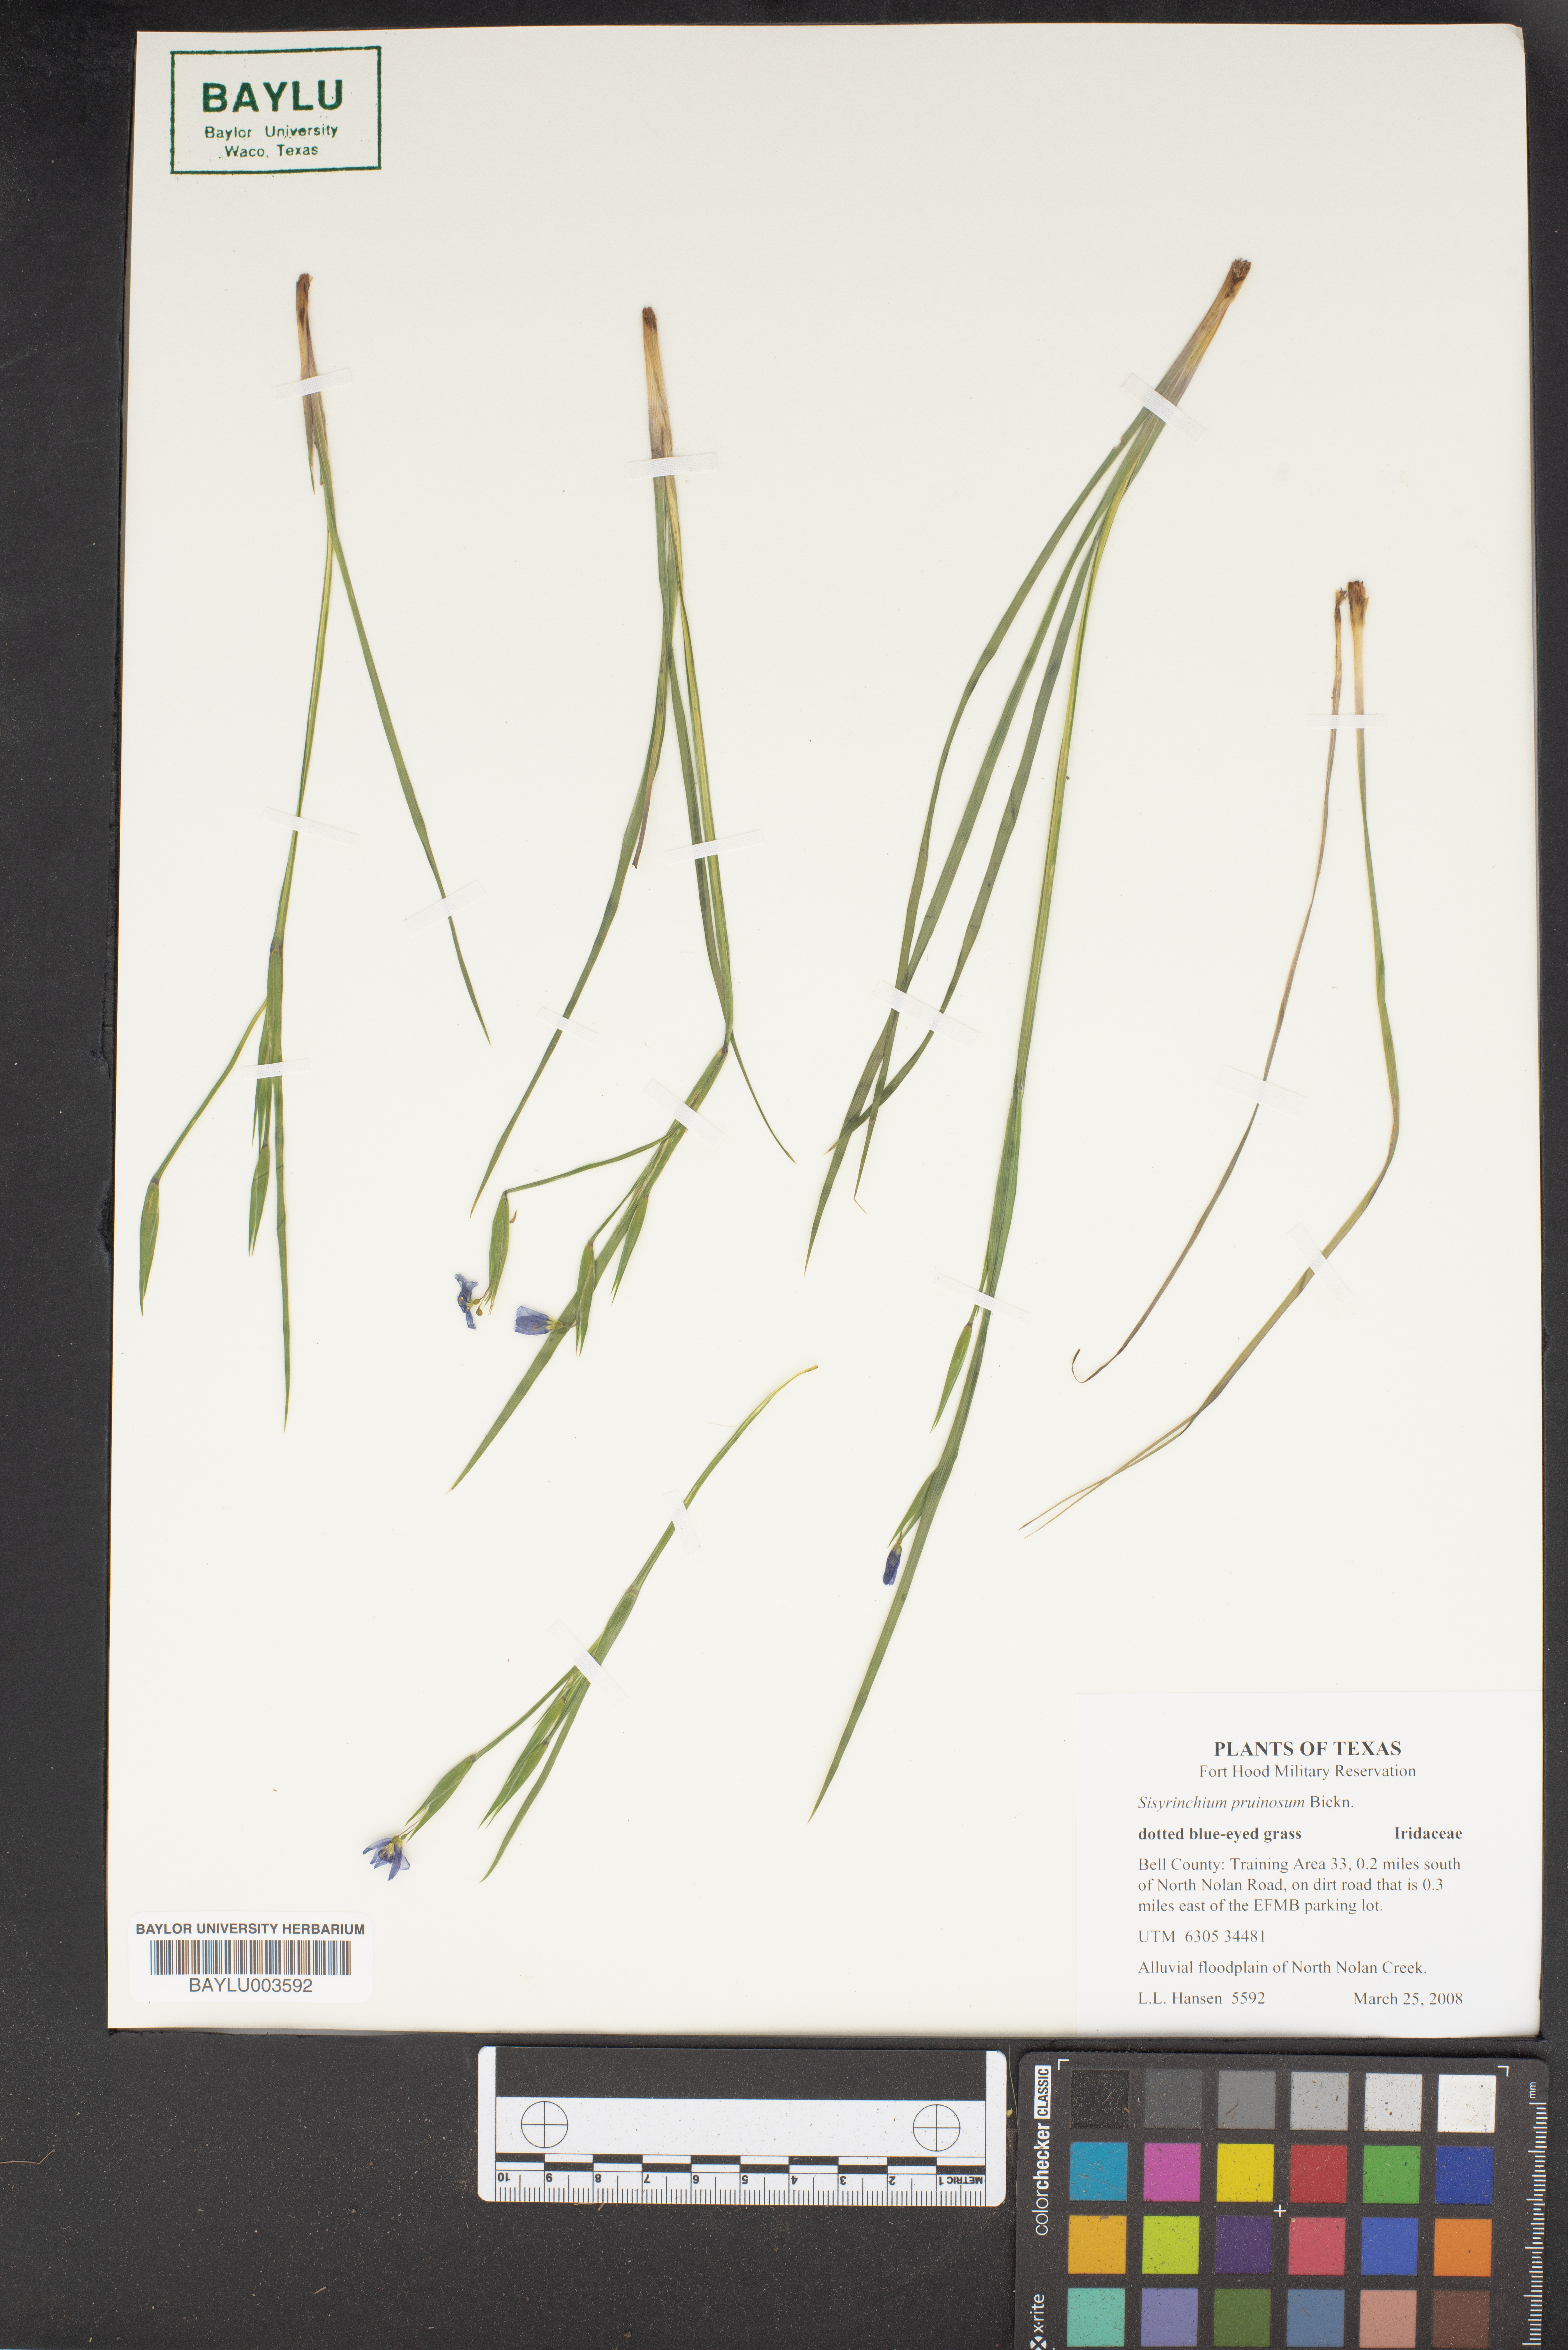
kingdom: Plantae
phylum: Tracheophyta
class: Liliopsida
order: Asparagales
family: Iridaceae
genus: Sisyrinchium
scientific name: Sisyrinchium pruinosum
